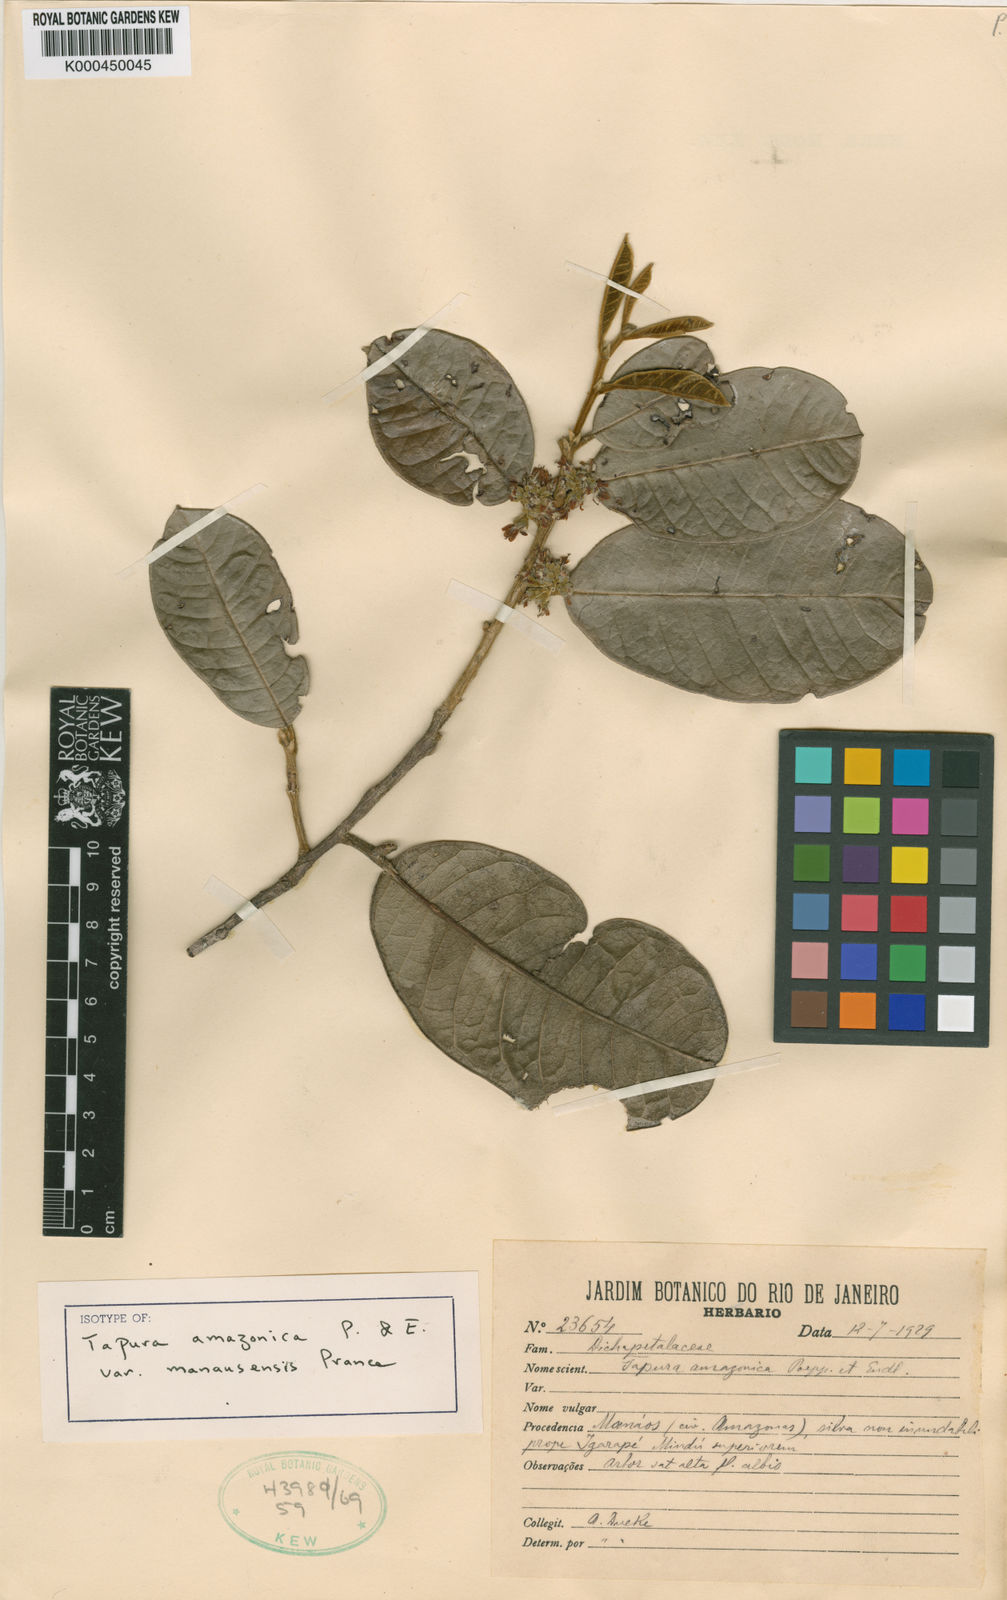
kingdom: Plantae
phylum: Tracheophyta
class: Magnoliopsida
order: Malpighiales
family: Dichapetalaceae
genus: Tapura
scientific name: Tapura amazonica
